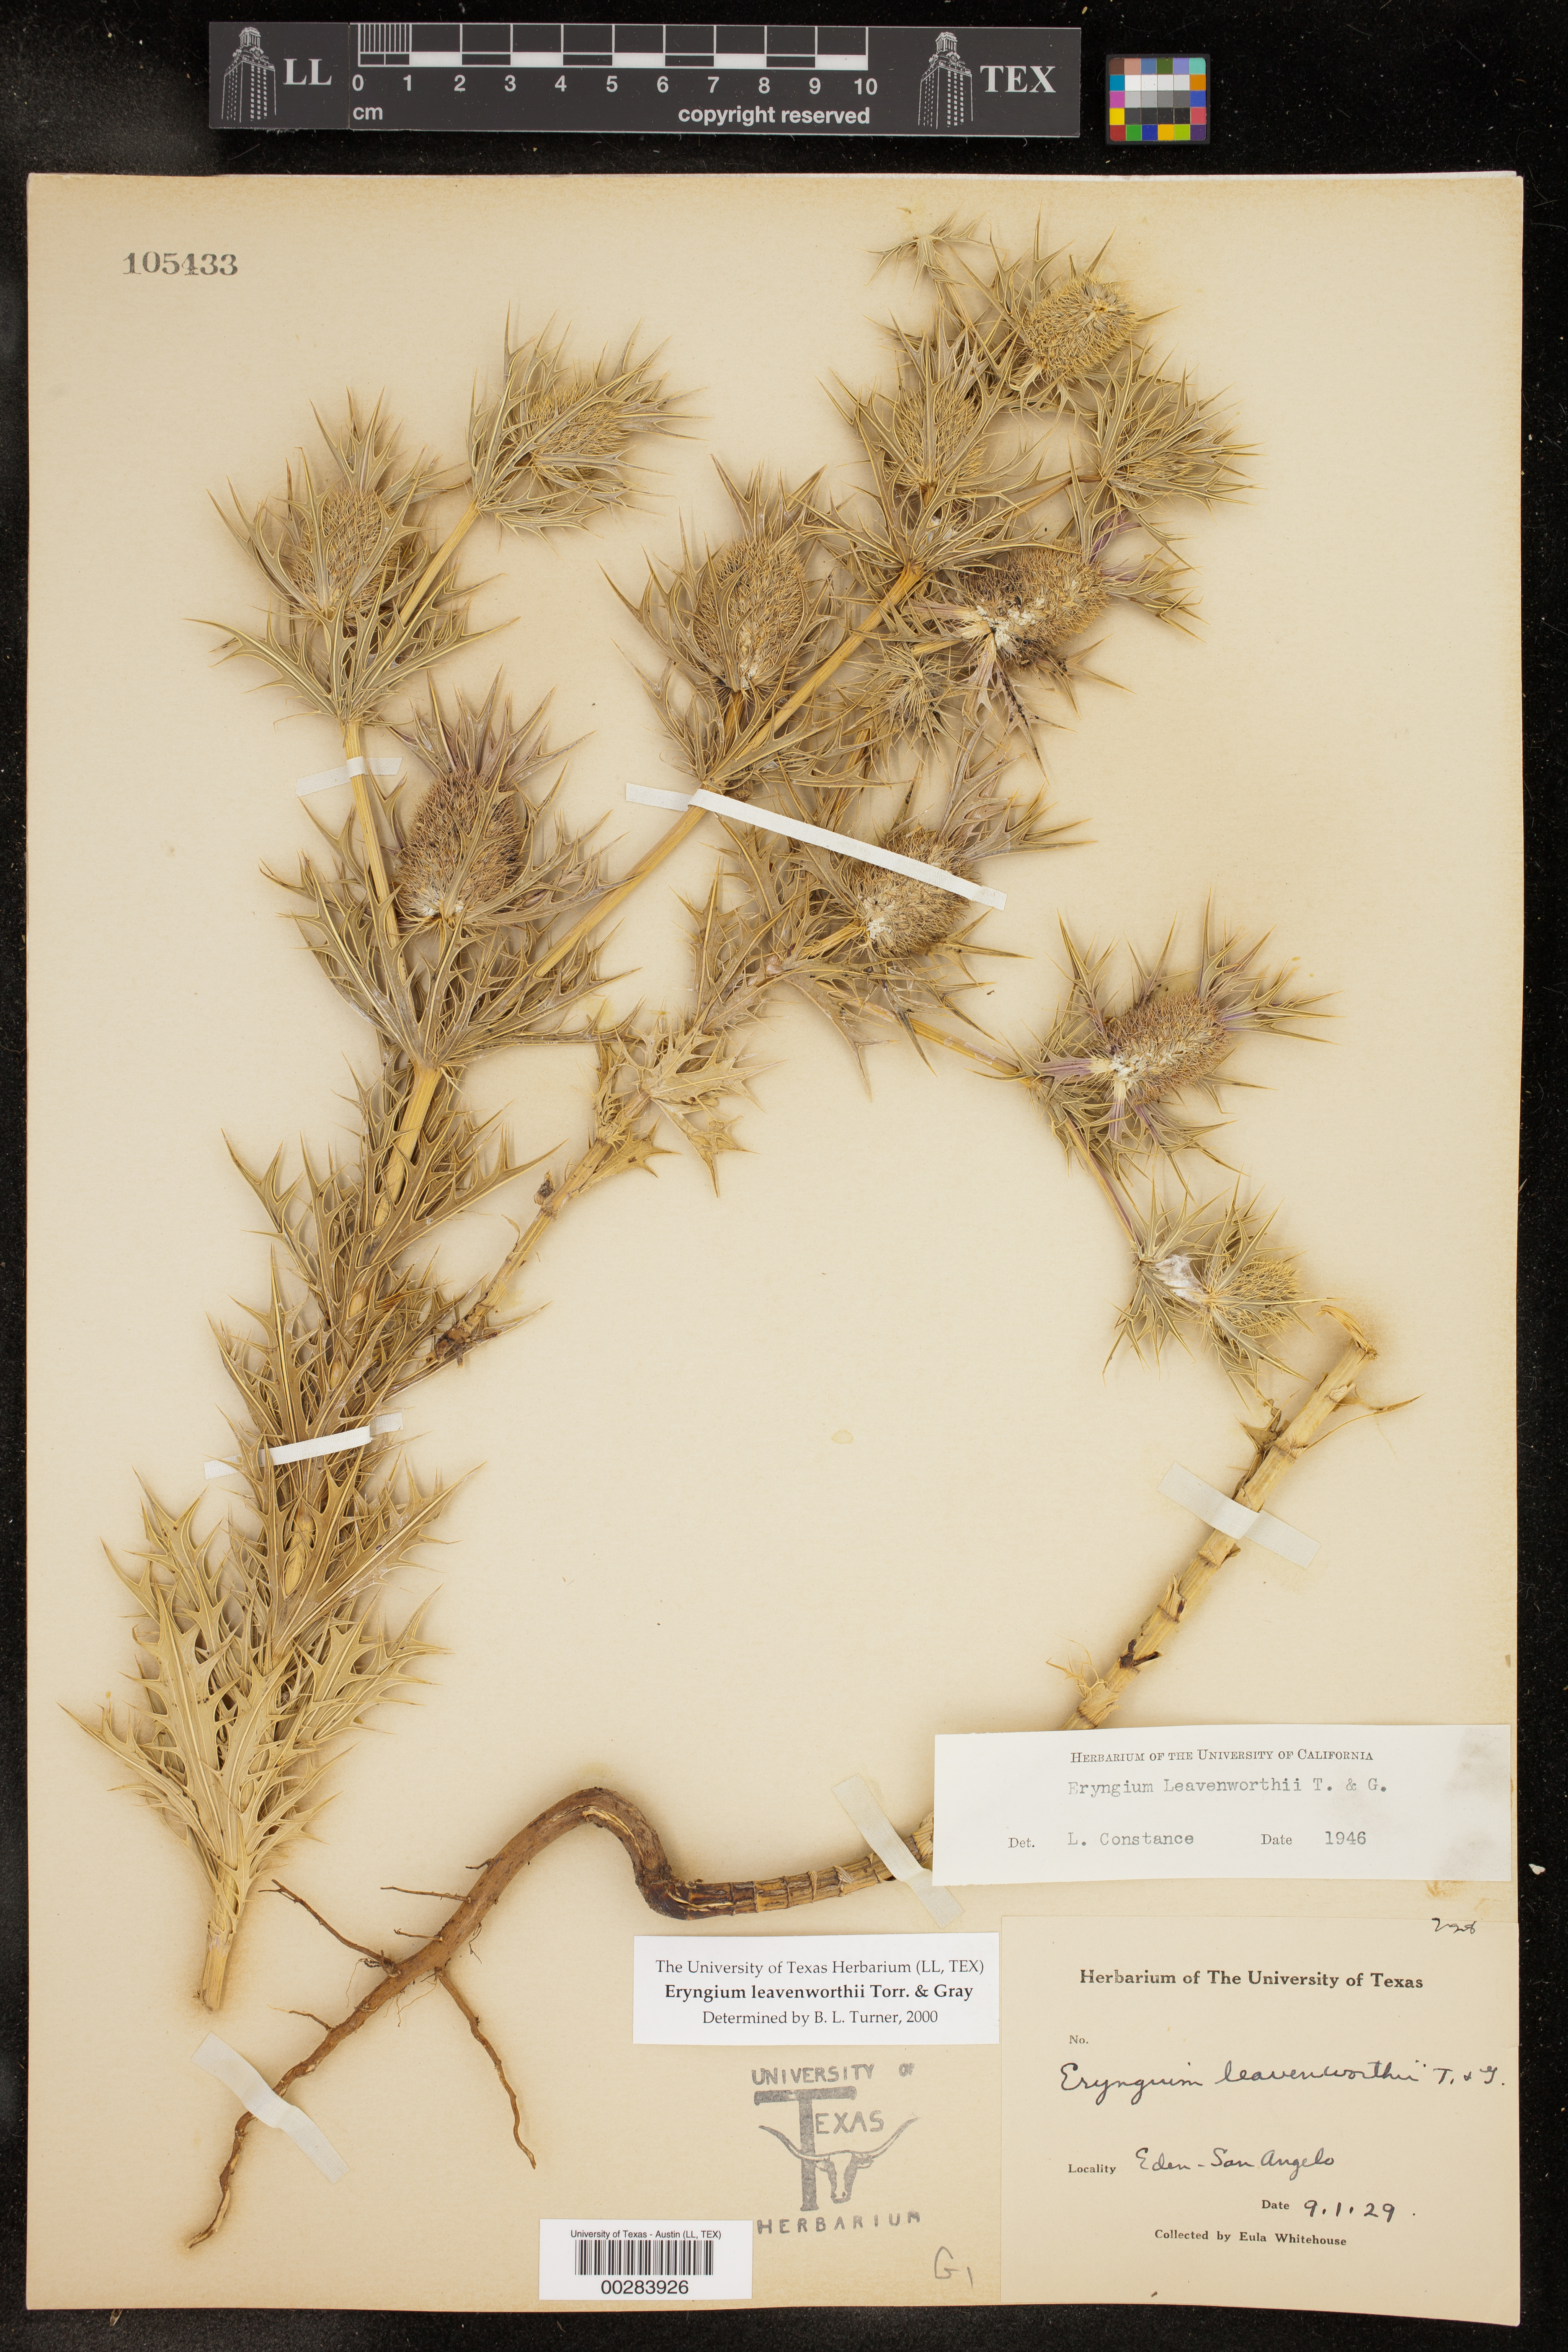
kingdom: Plantae
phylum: Tracheophyta
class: Magnoliopsida
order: Apiales
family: Apiaceae
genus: Eryngium
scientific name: Eryngium leavenworthii
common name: Leavenworth's eryngo
